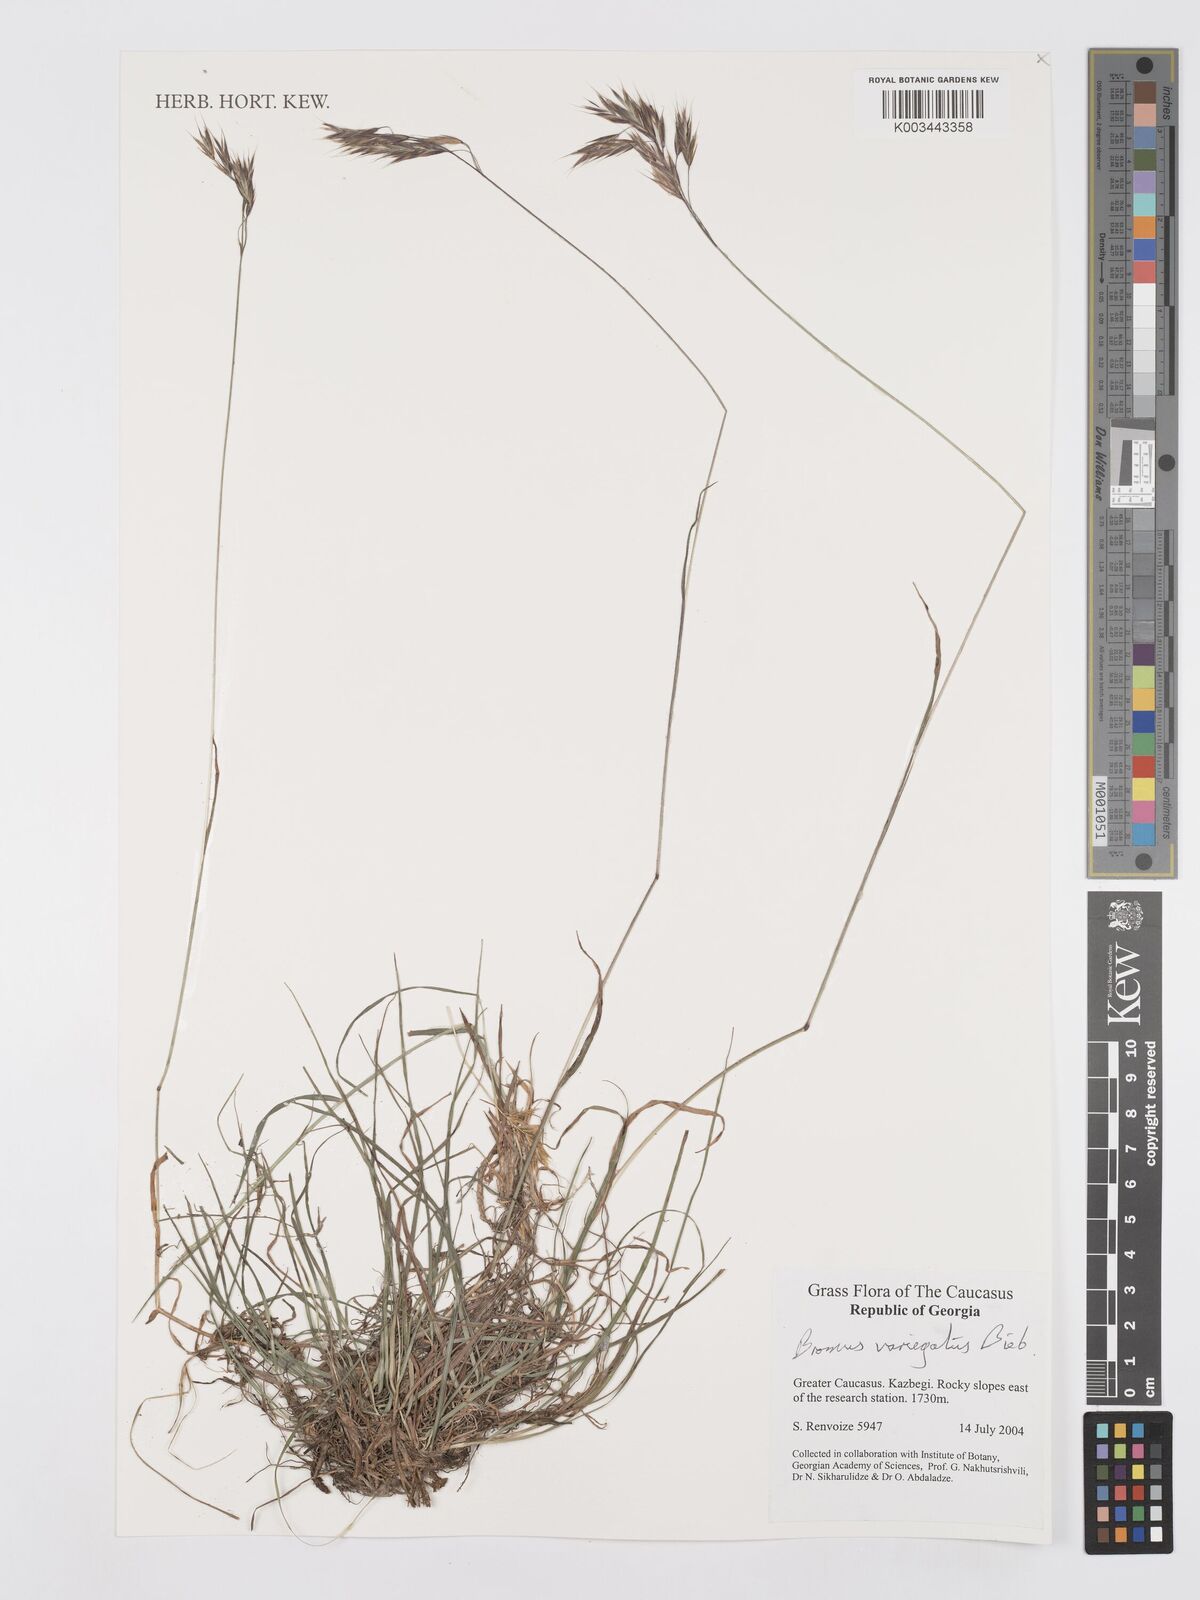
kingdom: Plantae
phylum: Tracheophyta
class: Liliopsida
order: Poales
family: Poaceae
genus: Bromus
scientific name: Bromus variegatus
